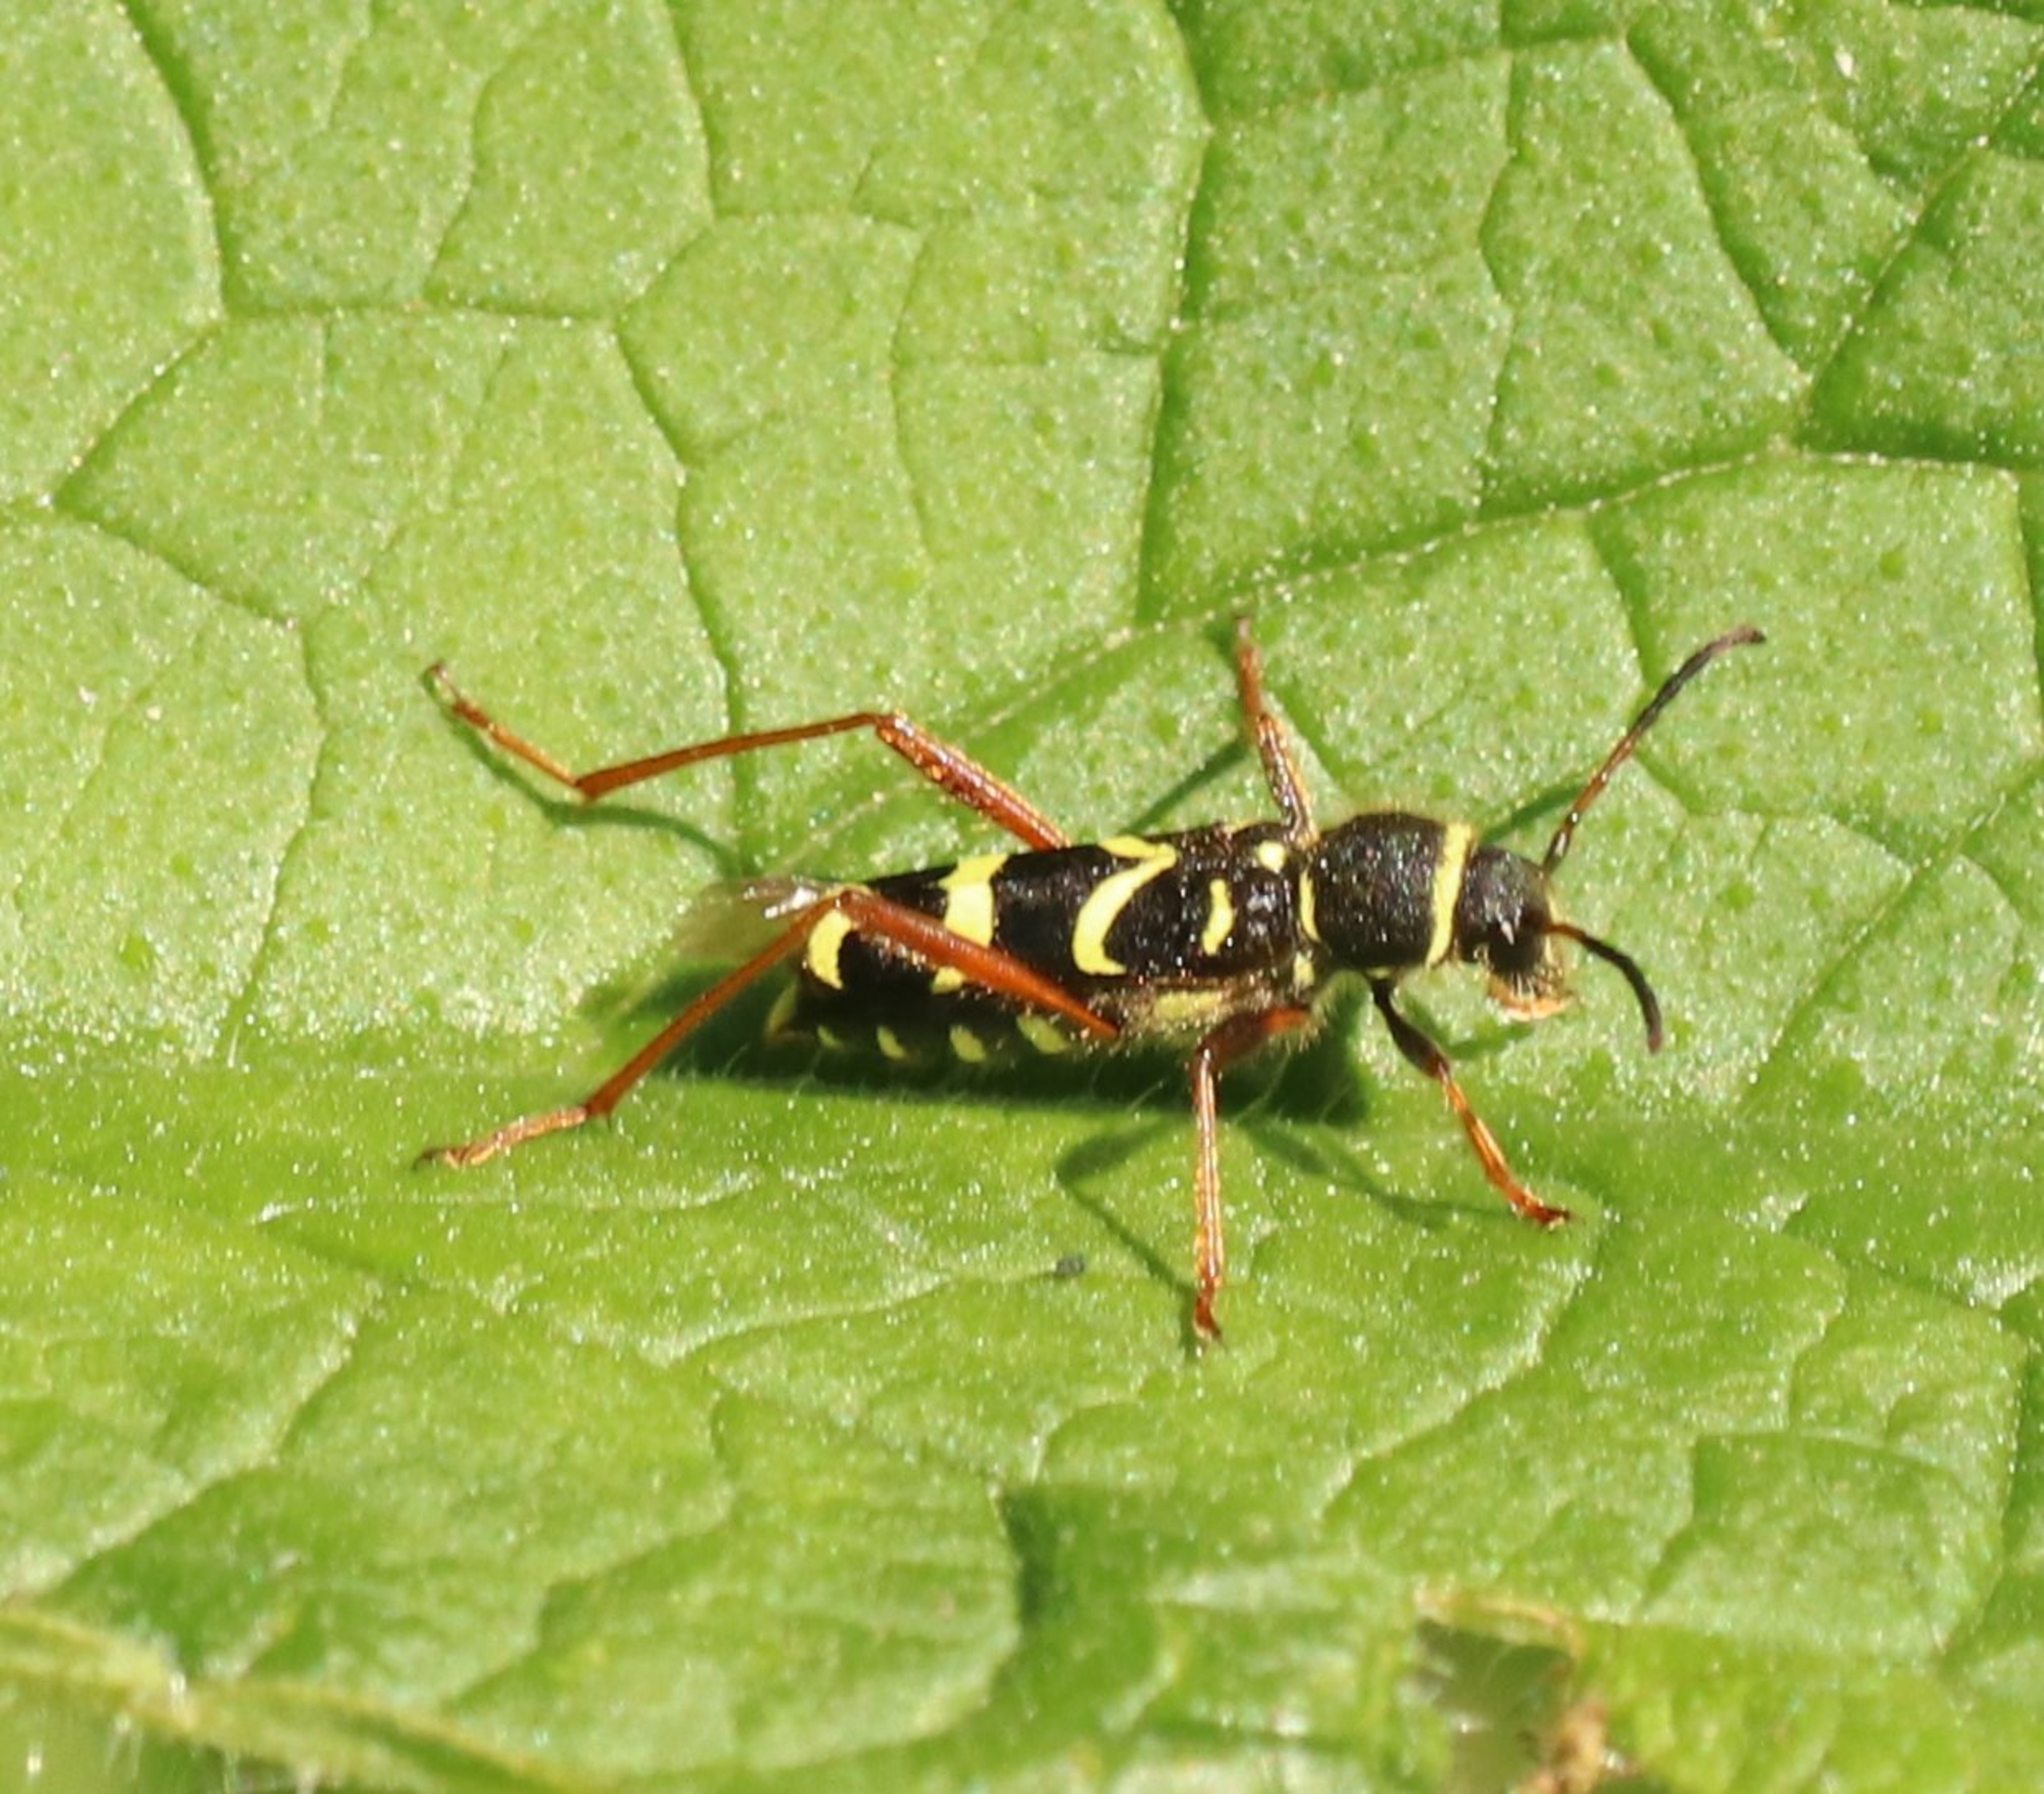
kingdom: Animalia
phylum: Arthropoda
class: Insecta
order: Coleoptera
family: Cerambycidae
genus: Clytus
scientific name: Clytus arietis
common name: Lille hvepsebuk
